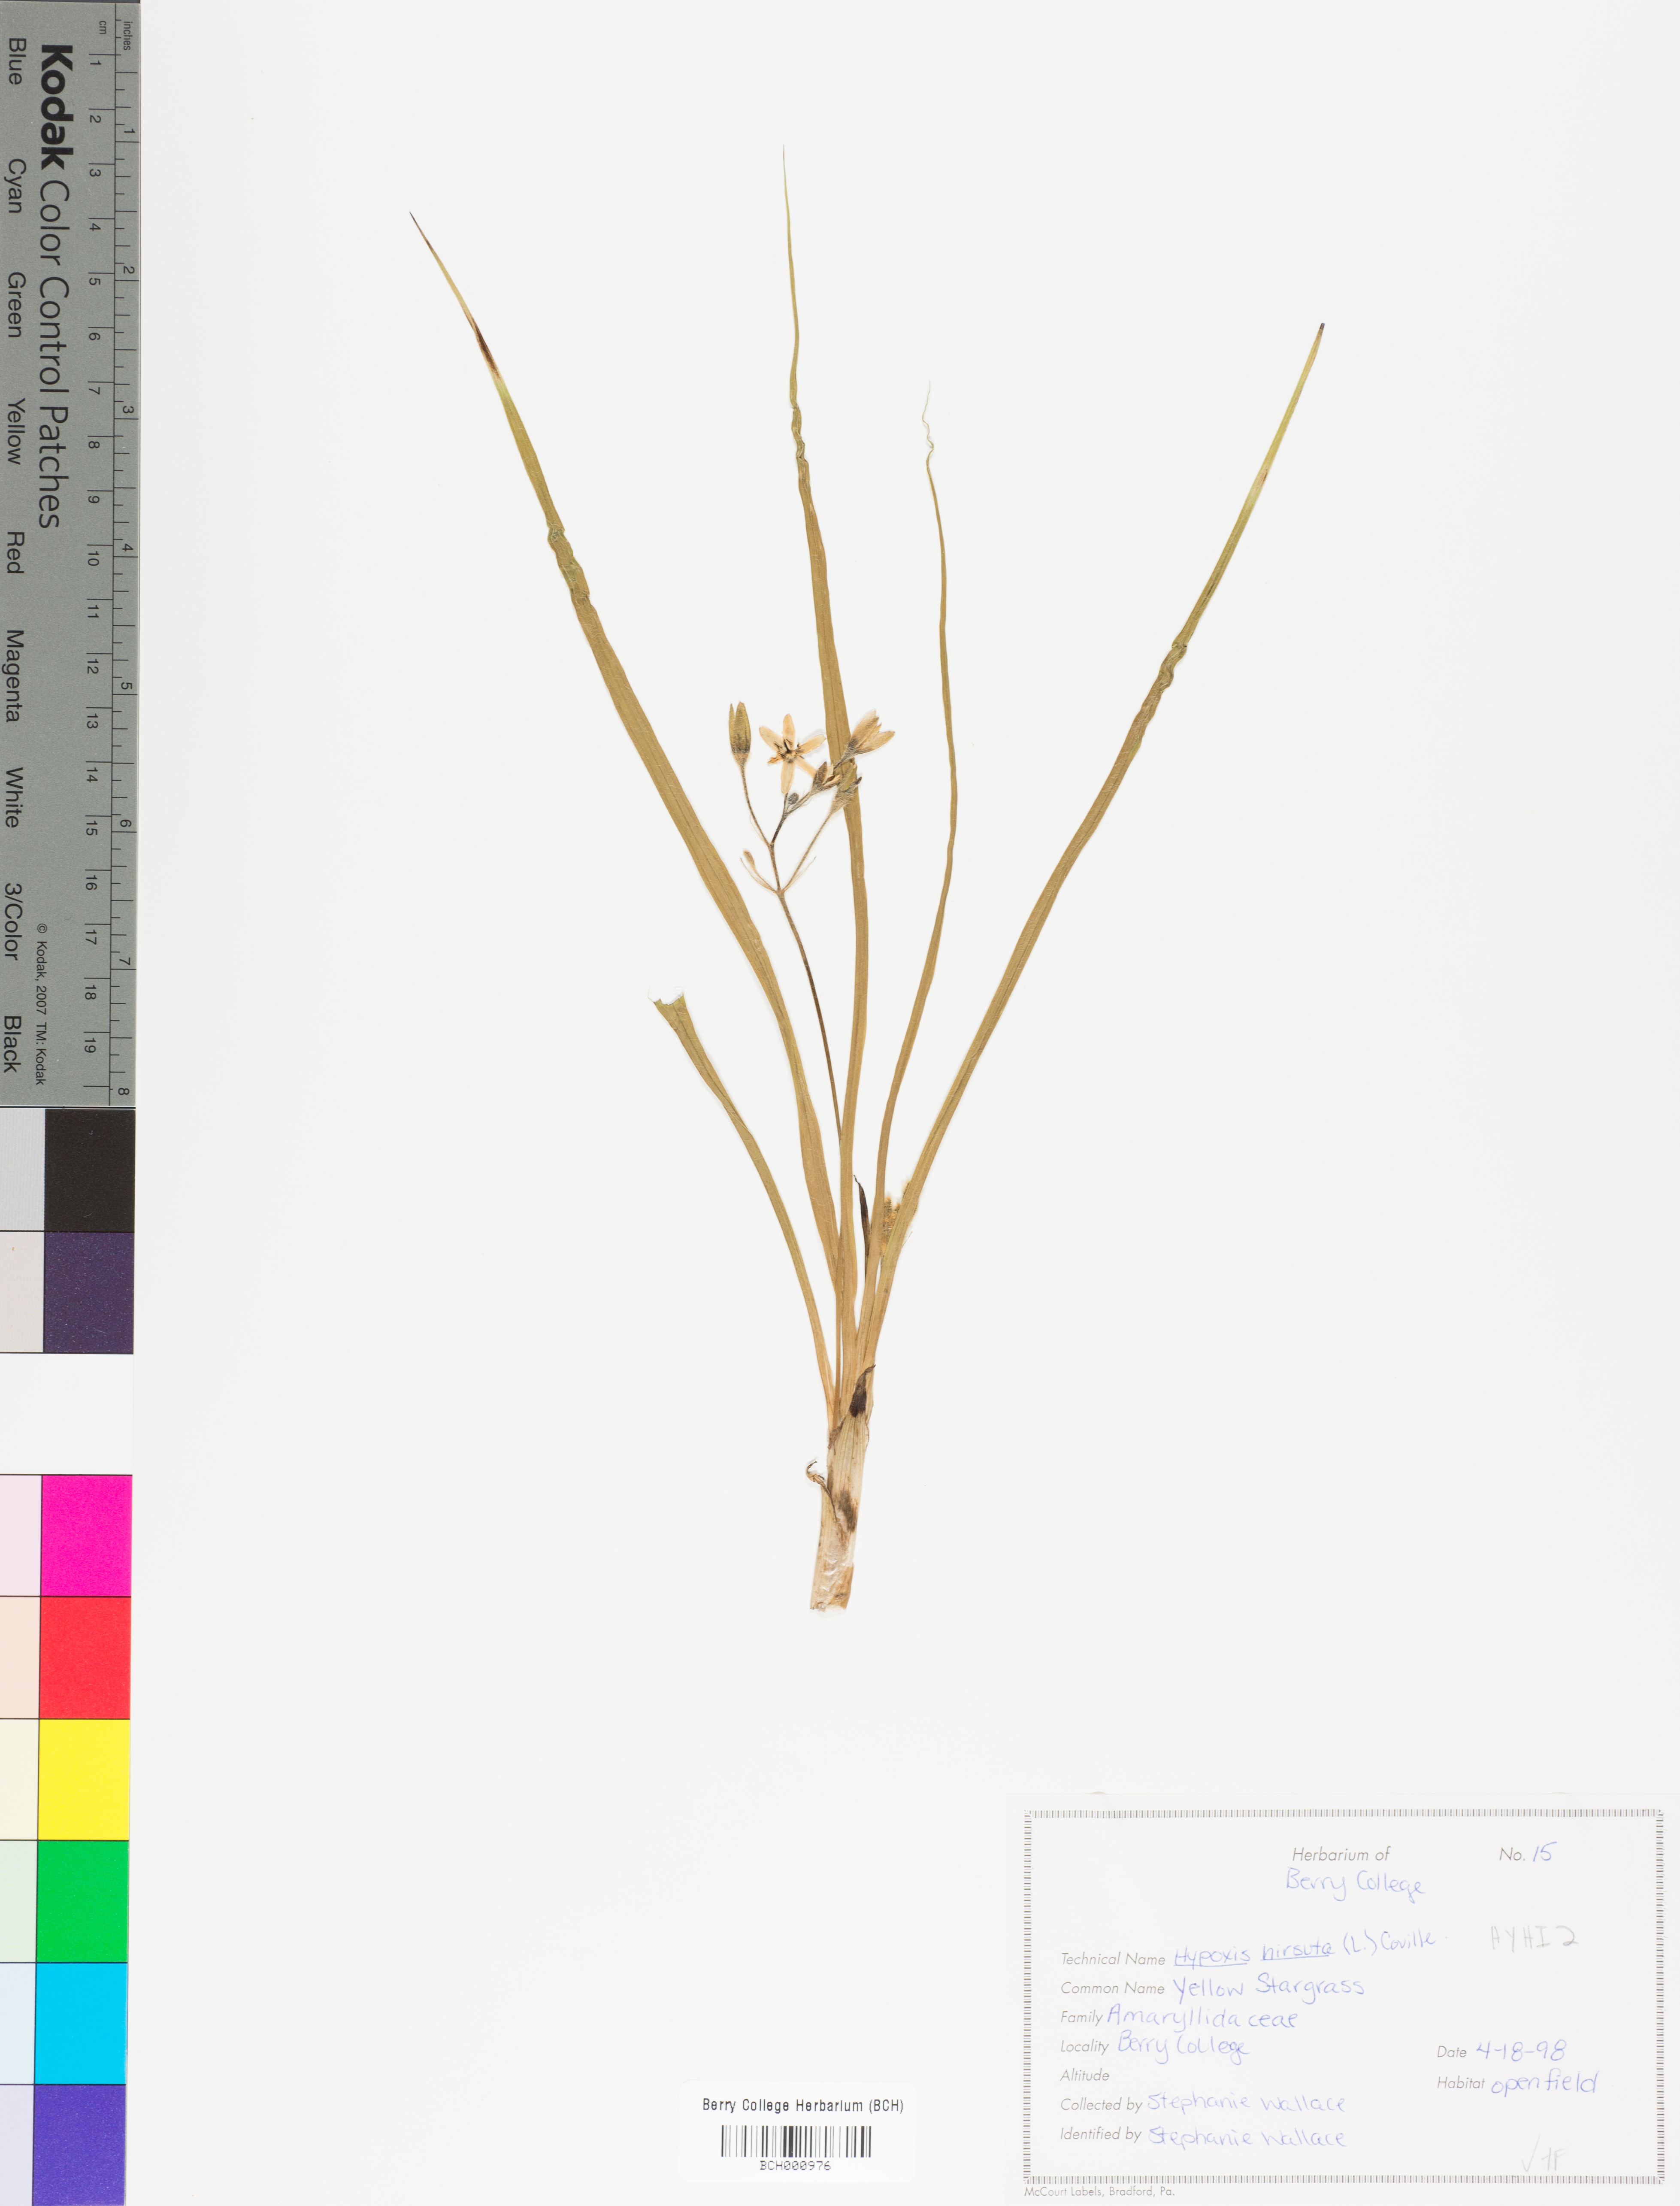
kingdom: Plantae
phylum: Tracheophyta
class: Liliopsida
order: Asparagales
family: Hypoxidaceae
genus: Hypoxis
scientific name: Hypoxis hirsuta
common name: Common goldstar
